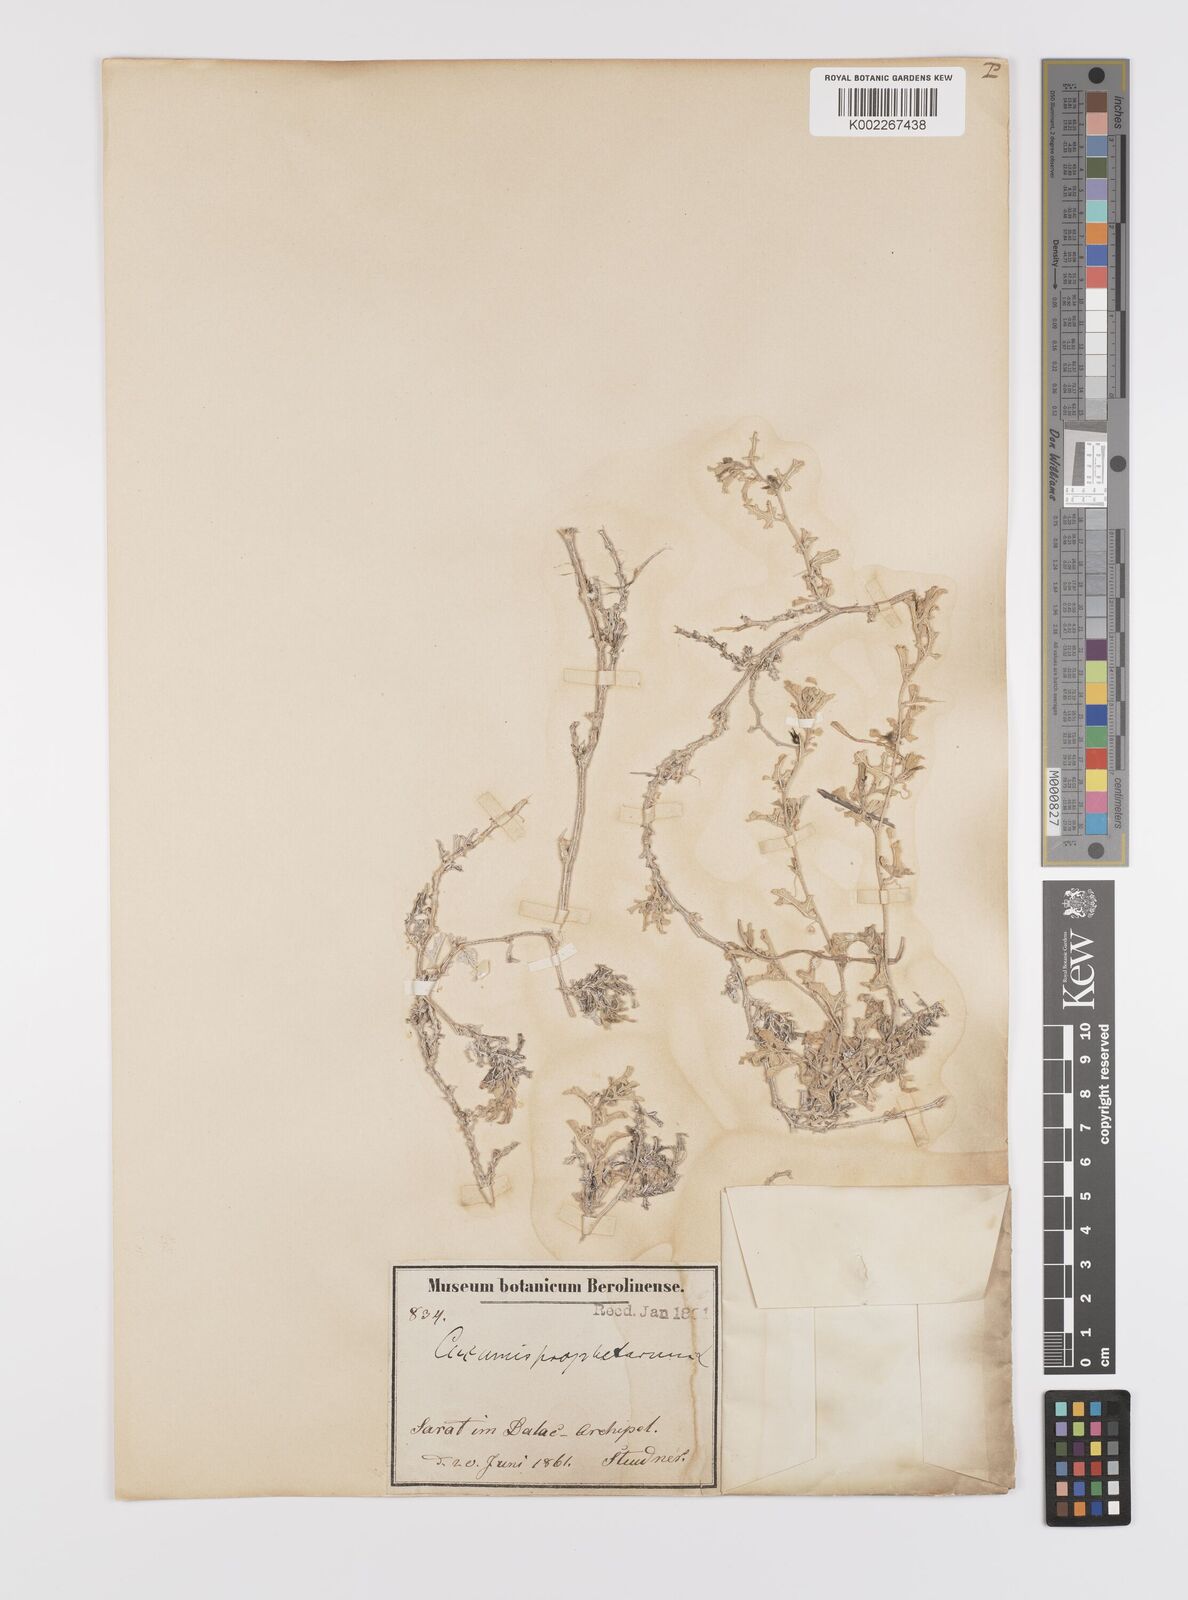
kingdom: Plantae
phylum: Tracheophyta
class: Magnoliopsida
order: Cucurbitales
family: Cucurbitaceae
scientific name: Cucurbitaceae
